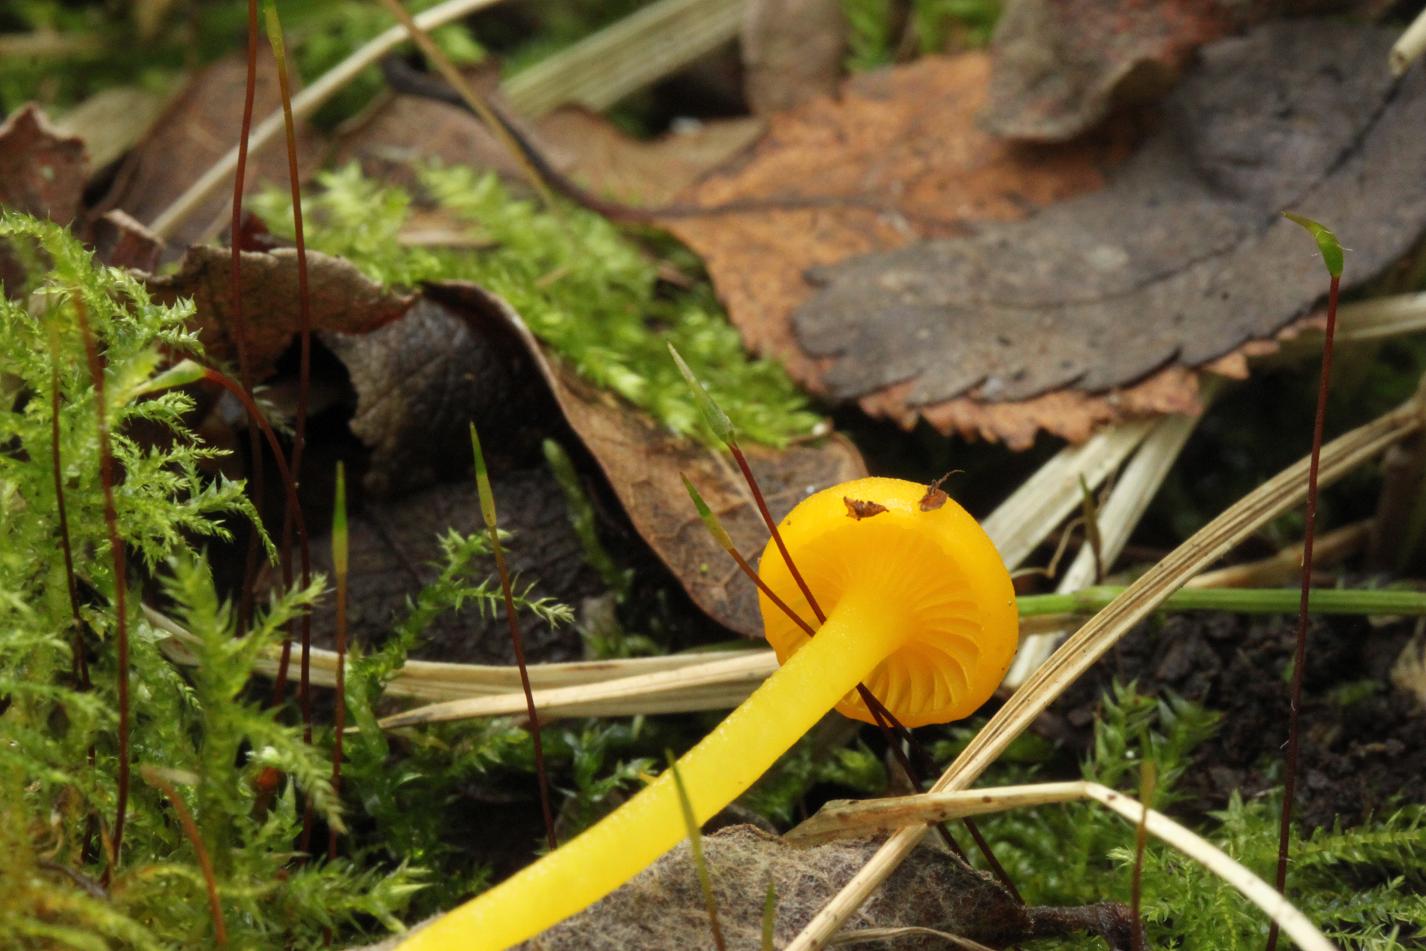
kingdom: Fungi
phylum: Basidiomycota
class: Agaricomycetes
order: Agaricales
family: Hygrophoraceae
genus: Gloioxanthomyces
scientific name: Gloioxanthomyces vitellinus
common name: kromgul vokshat
